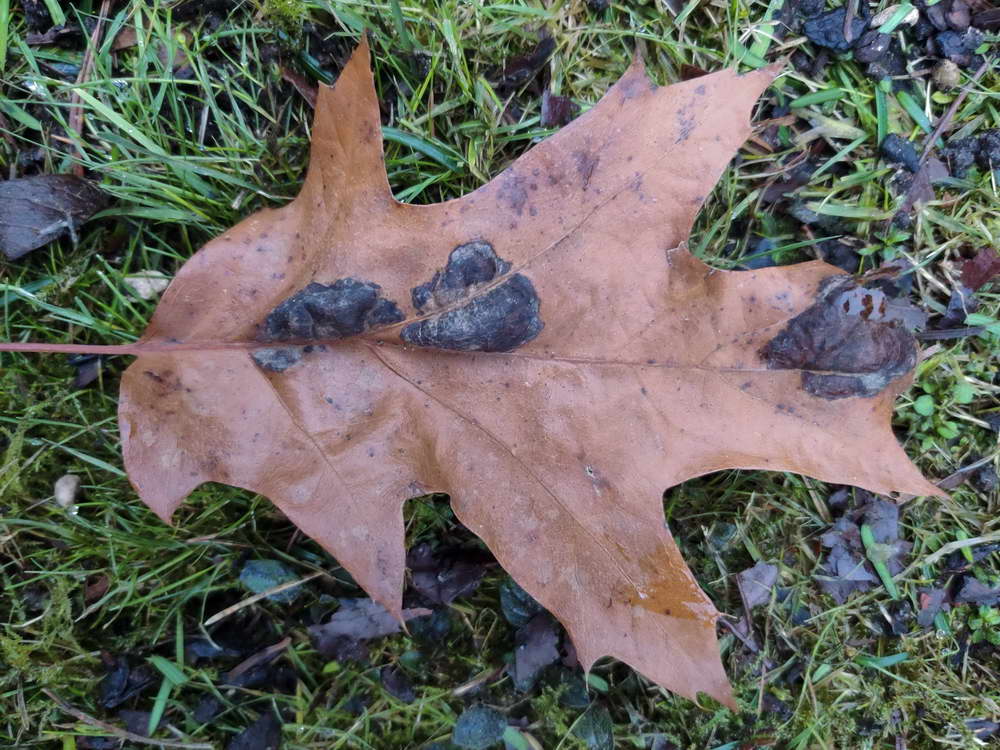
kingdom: Fungi
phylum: Ascomycota
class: Taphrinomycetes
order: Taphrinales
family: Taphrinaceae
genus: Taphrina
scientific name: Taphrina caerulescens
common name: Oak leaf blister
